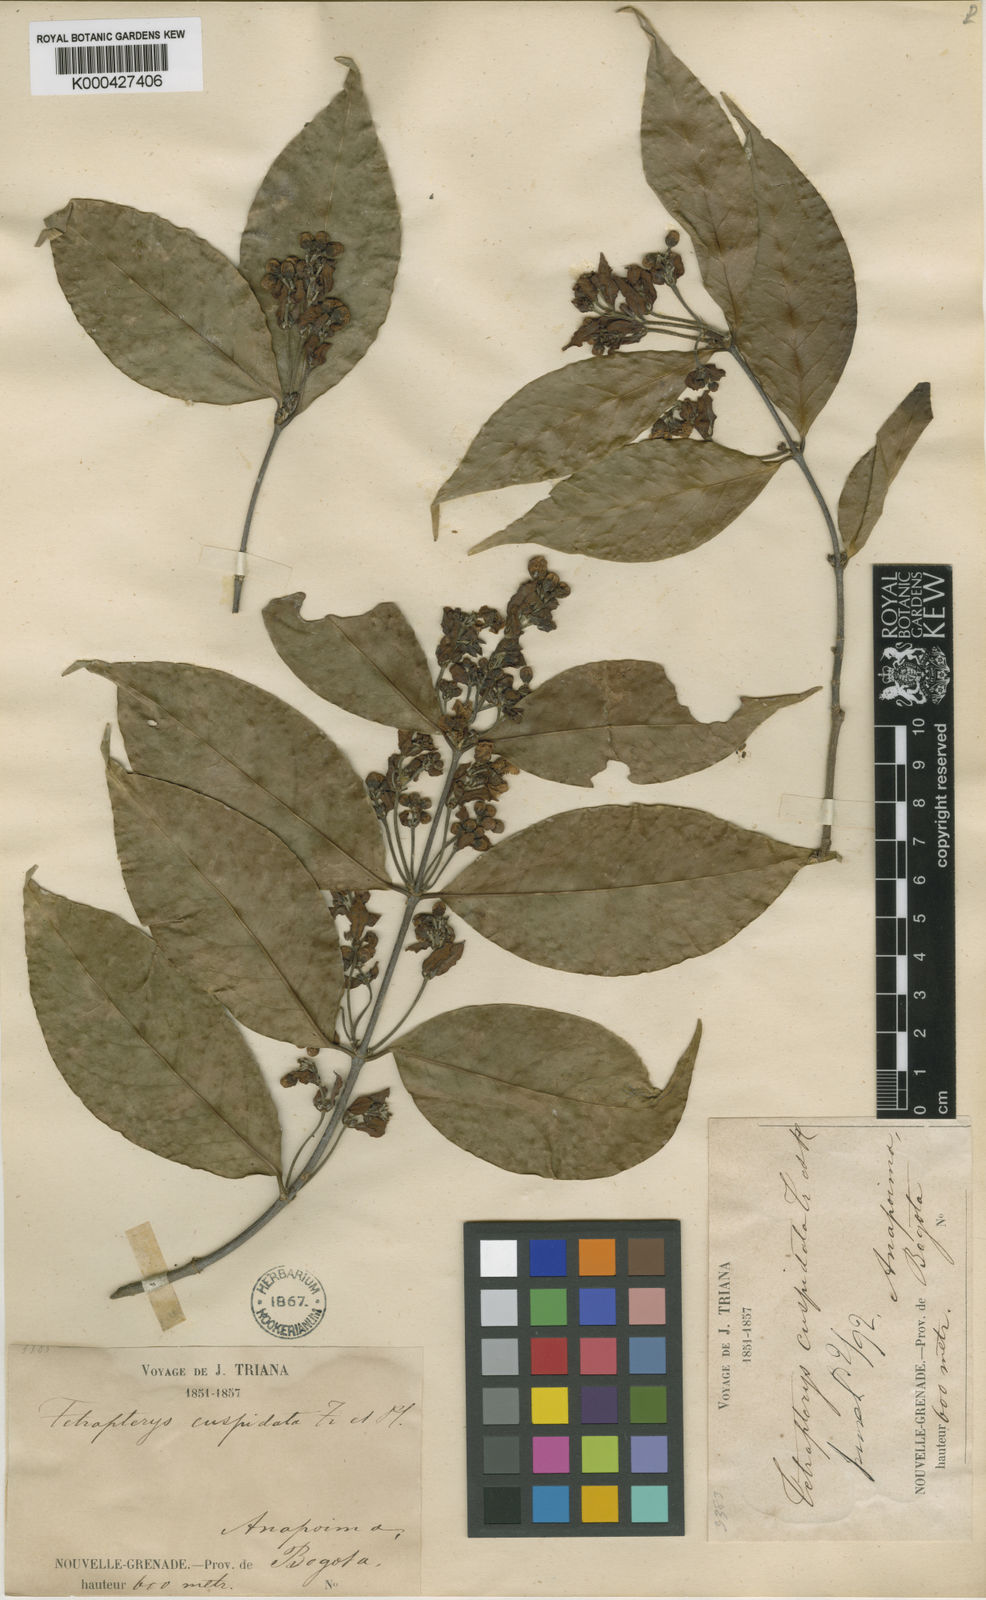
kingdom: Plantae
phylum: Tracheophyta
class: Magnoliopsida
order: Malpighiales
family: Malpighiaceae
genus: Tetrapterys
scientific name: Tetrapterys discolor
